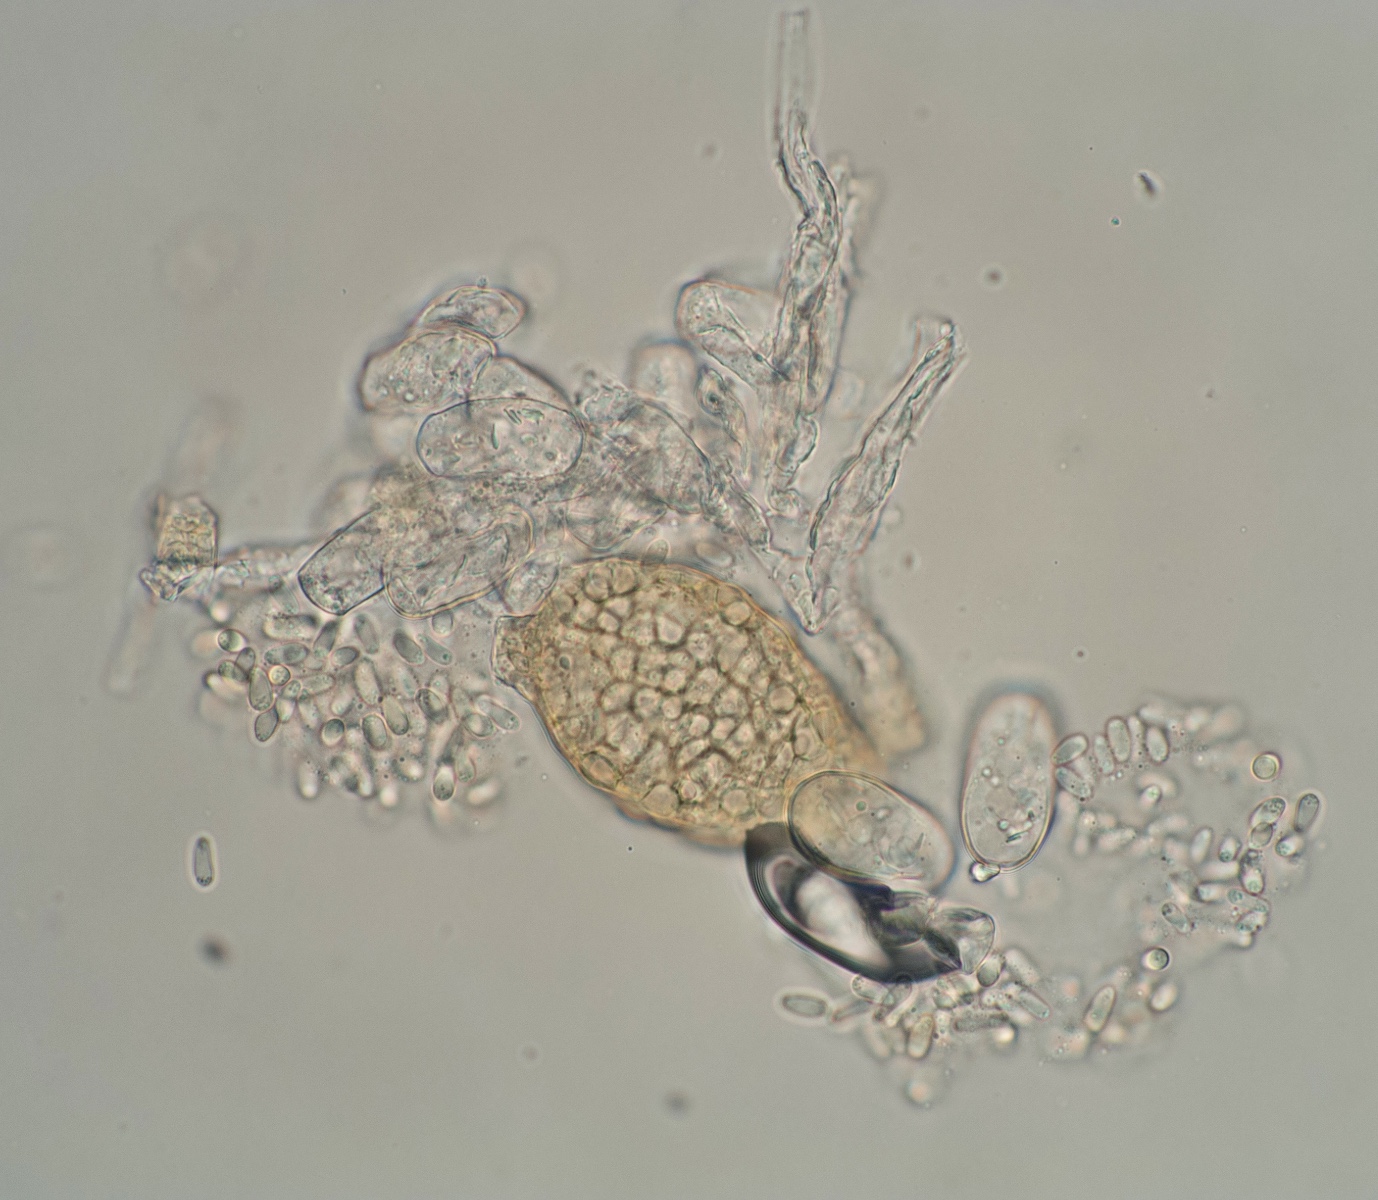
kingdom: Fungi
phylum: Ascomycota
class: Leotiomycetes
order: Helotiales
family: Erysiphaceae
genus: Podosphaera
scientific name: Podosphaera clandestina
